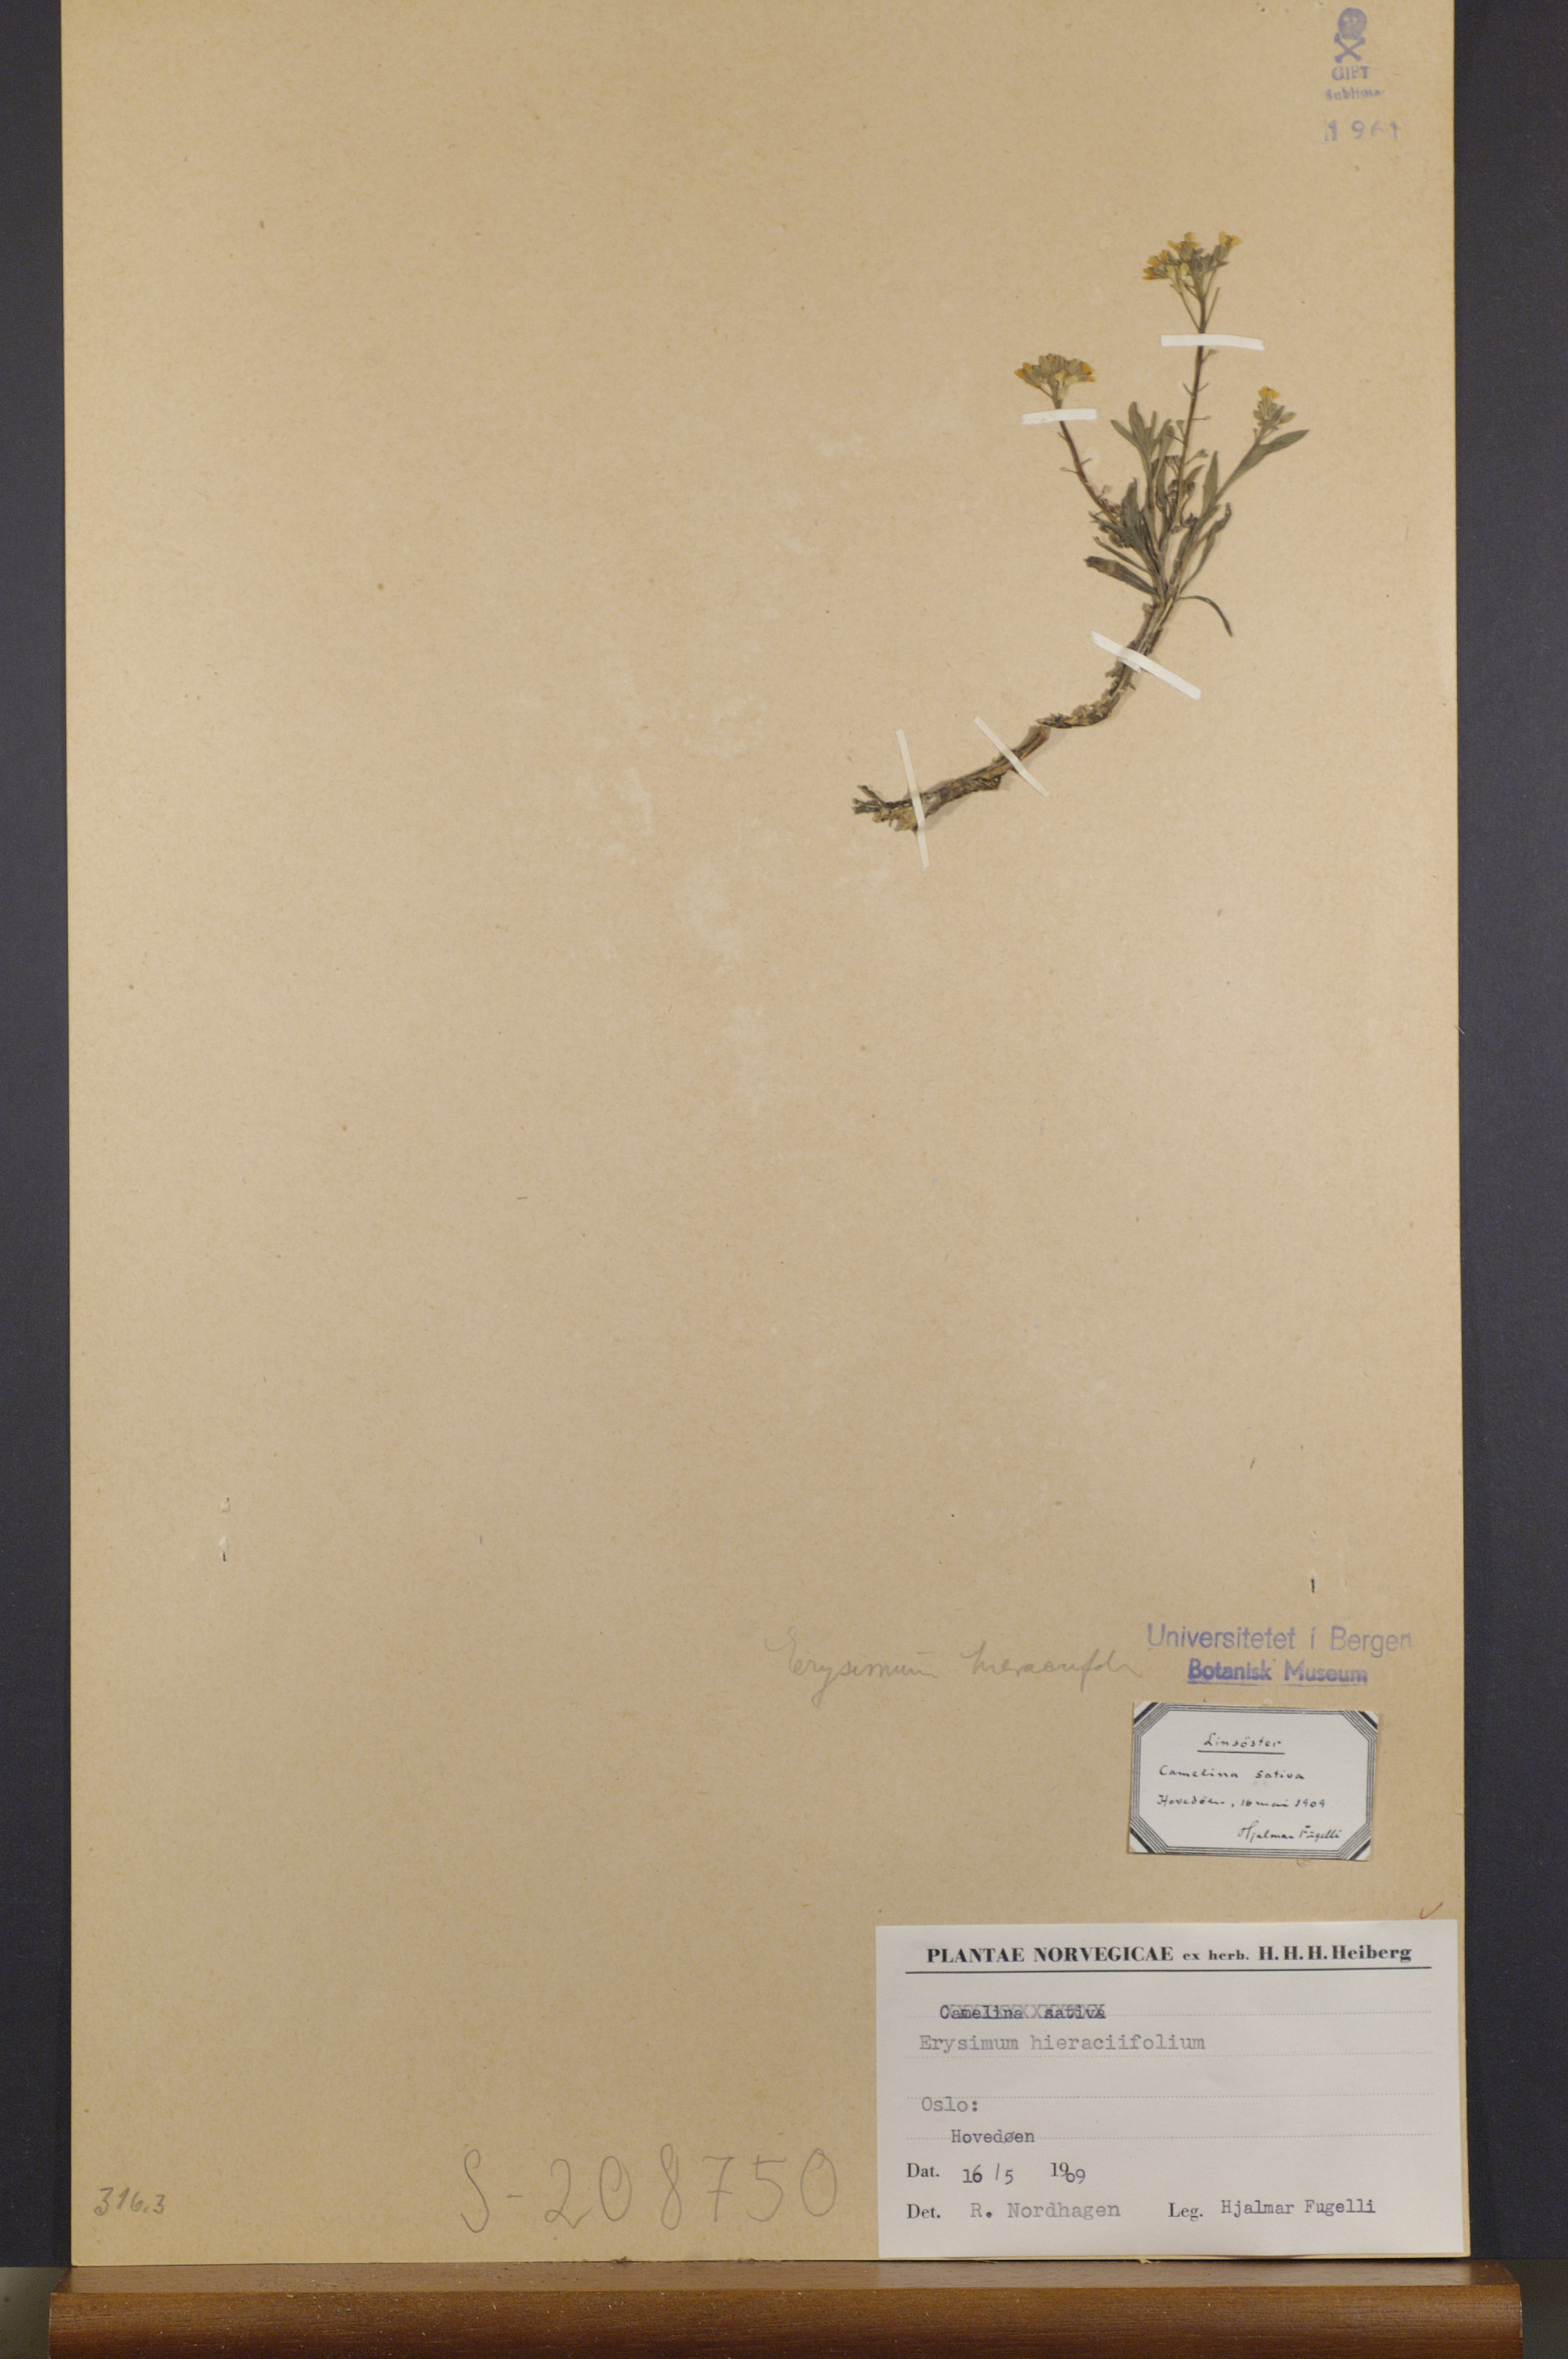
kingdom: Plantae
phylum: Tracheophyta
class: Magnoliopsida
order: Brassicales
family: Brassicaceae
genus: Erysimum
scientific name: Erysimum hieraciifolium
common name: European wallflower
